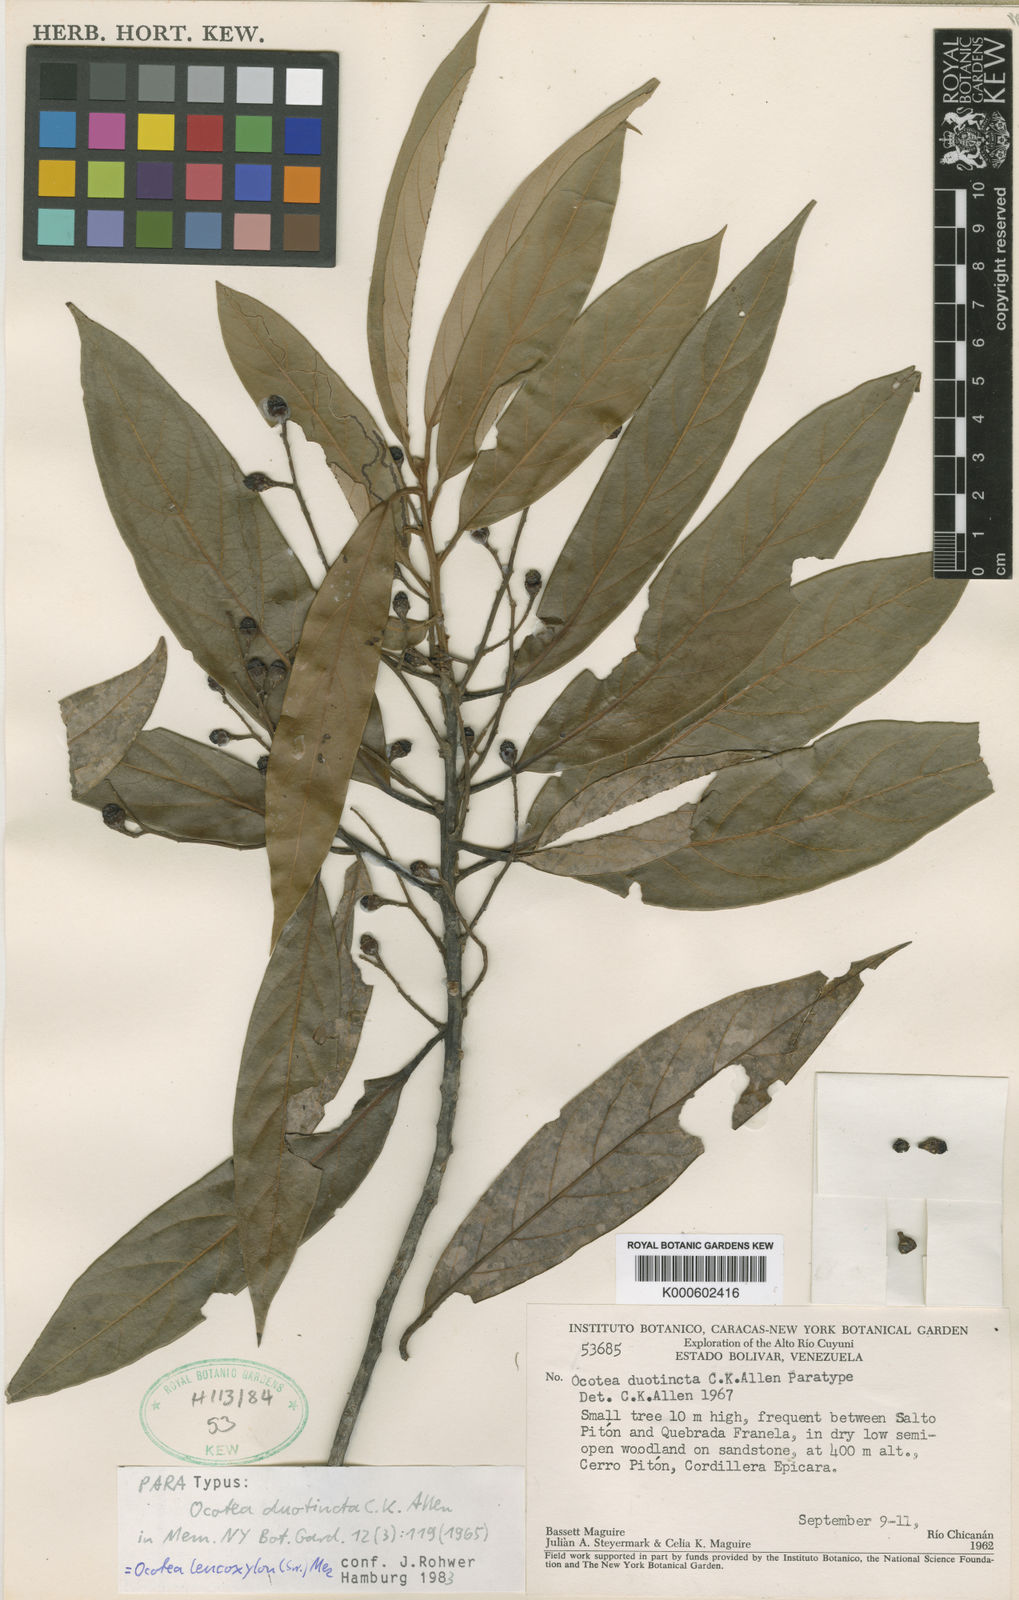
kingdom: Plantae
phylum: Tracheophyta
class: Magnoliopsida
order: Laurales
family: Lauraceae
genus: Ocotea
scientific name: Ocotea
